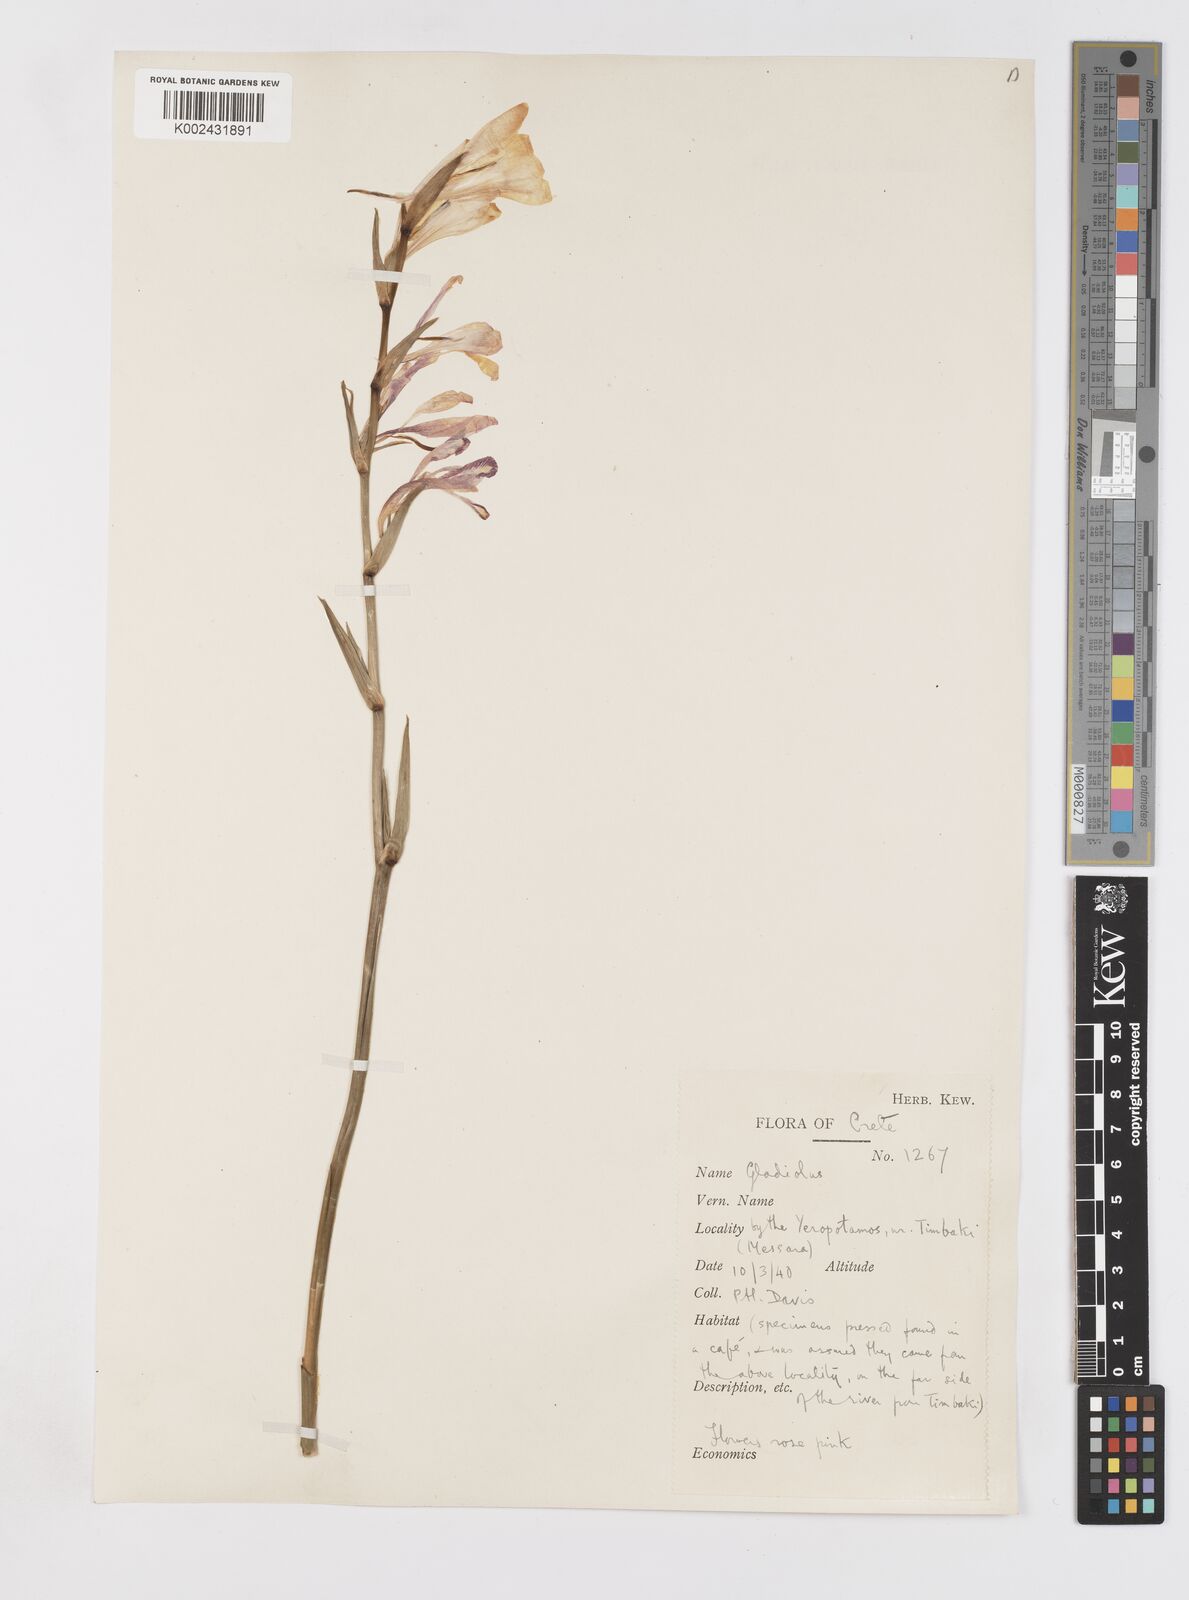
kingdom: Plantae
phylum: Tracheophyta
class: Liliopsida
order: Asparagales
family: Iridaceae
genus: Gladiolus
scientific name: Gladiolus italicus
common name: Field gladiolus
